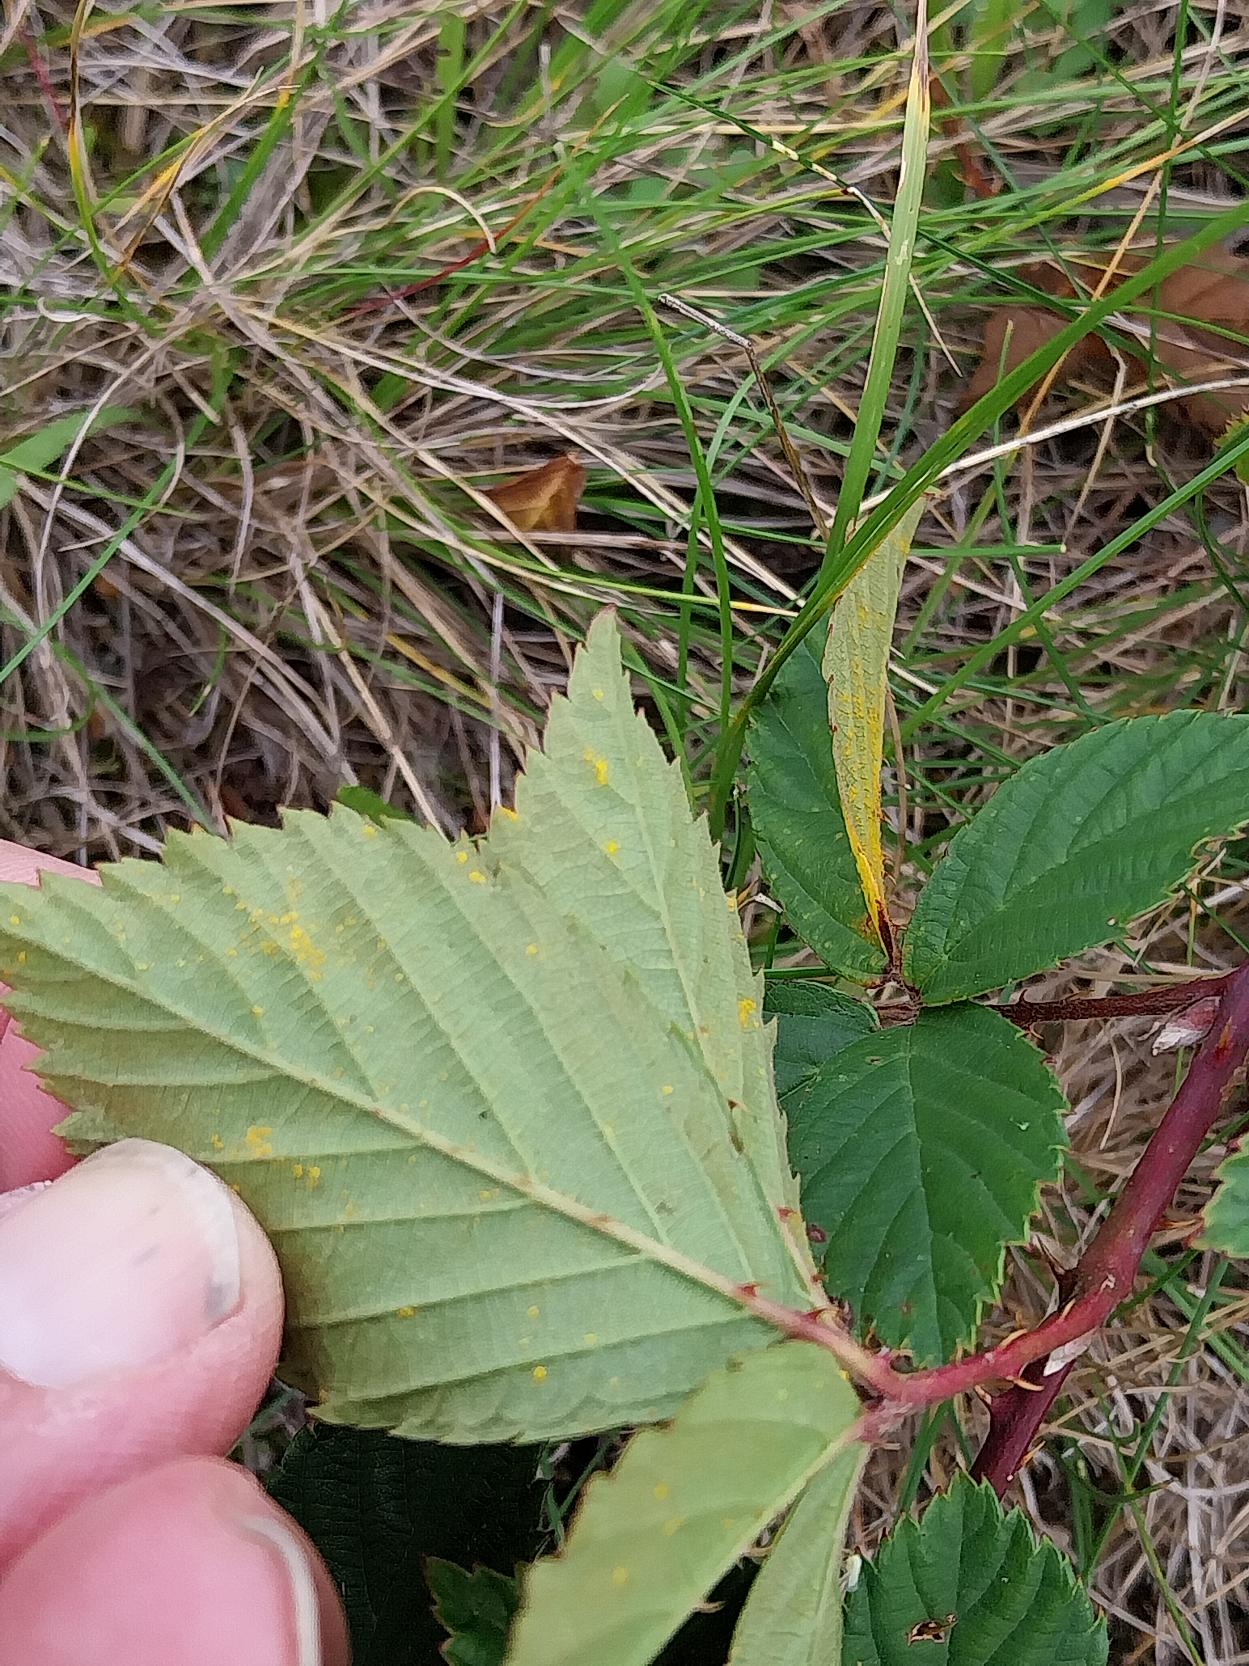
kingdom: Plantae
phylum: Tracheophyta
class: Magnoliopsida
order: Rosales
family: Rosaceae
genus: Rubus
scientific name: Rubus plicatus
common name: Almindelig brombær
